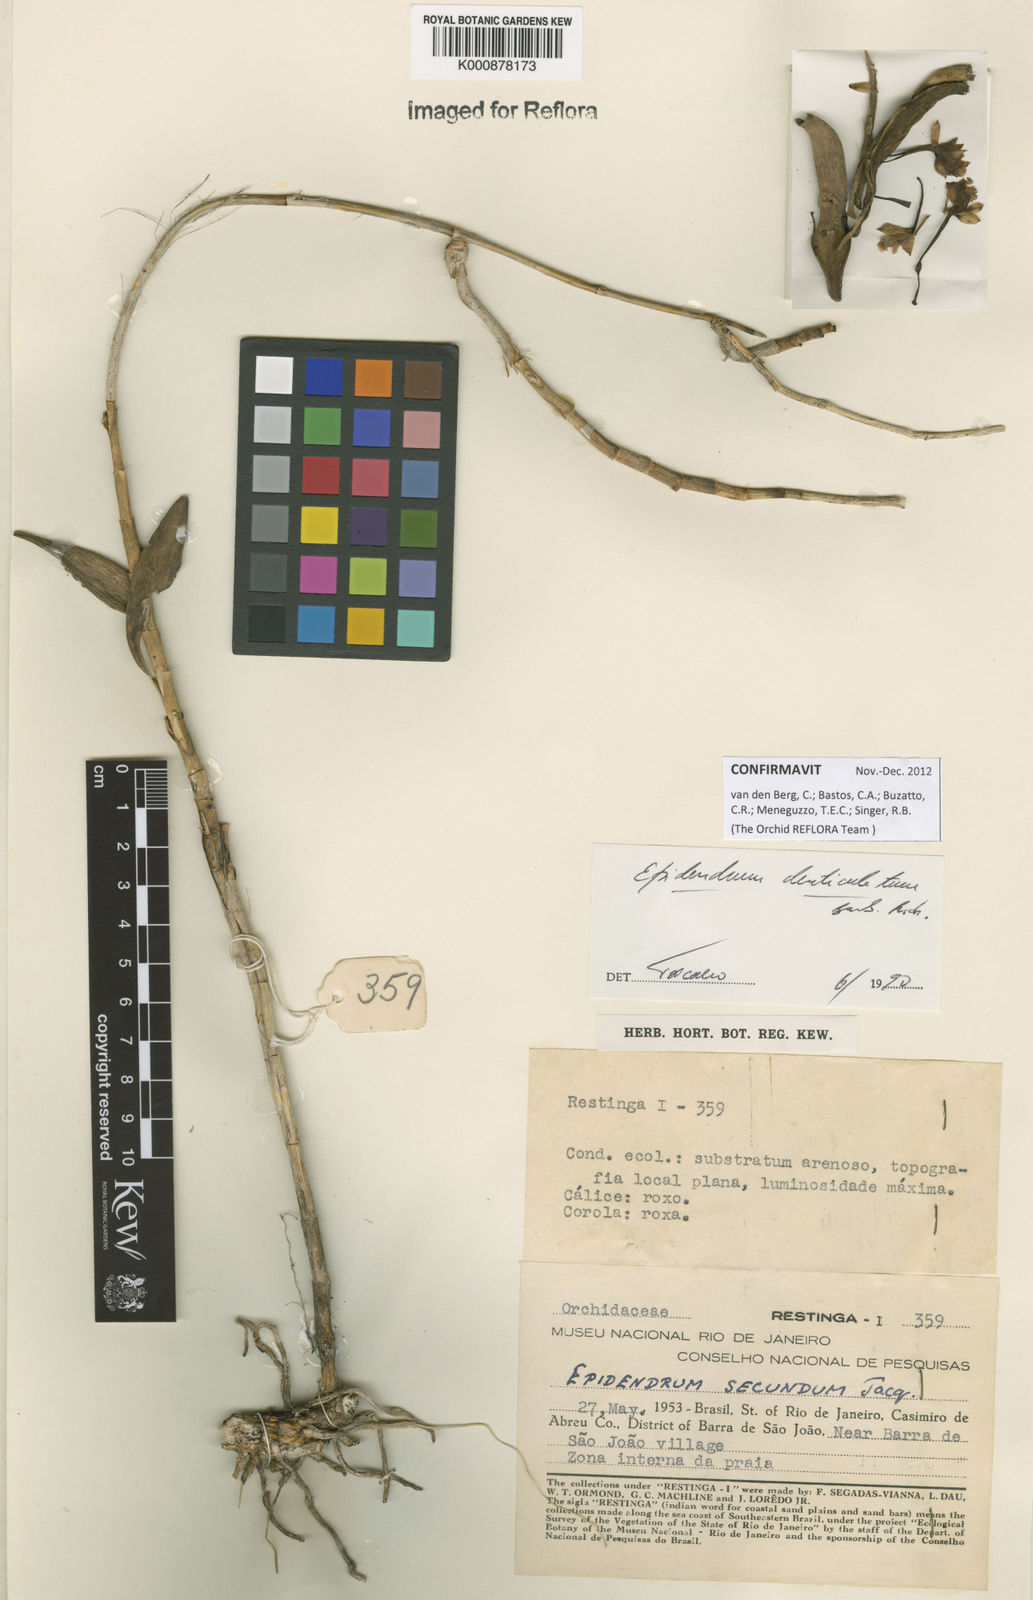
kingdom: Plantae
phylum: Tracheophyta
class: Liliopsida
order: Asparagales
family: Orchidaceae
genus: Epidendrum
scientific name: Epidendrum denticulatum
